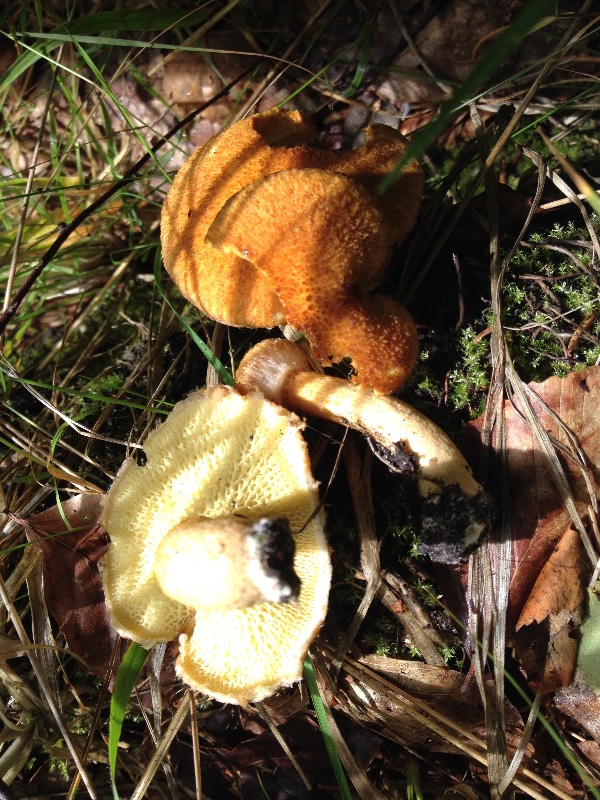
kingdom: Fungi
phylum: Basidiomycota
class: Agaricomycetes
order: Boletales
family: Suillaceae
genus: Suillus
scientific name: Suillus cavipes
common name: hulstokket slimrørhat
